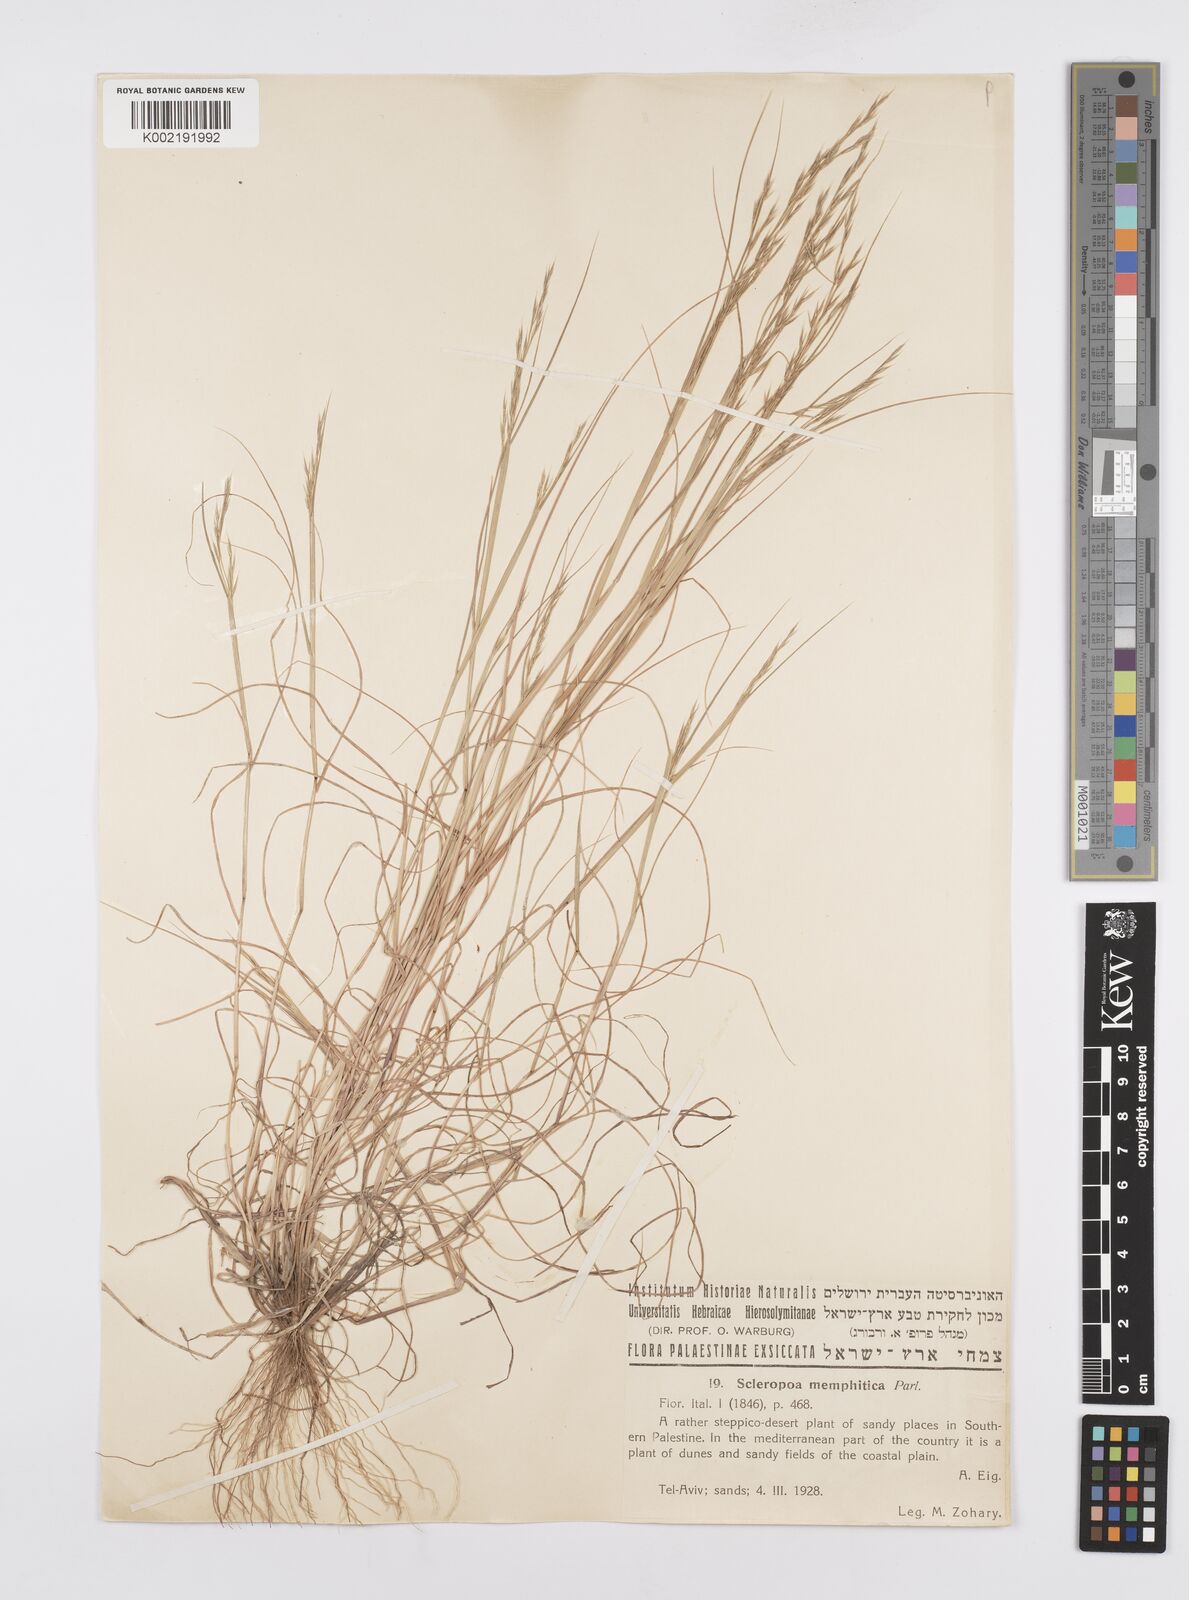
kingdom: Plantae
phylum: Tracheophyta
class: Liliopsida
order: Poales
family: Poaceae
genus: Cutandia
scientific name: Cutandia memphitica
